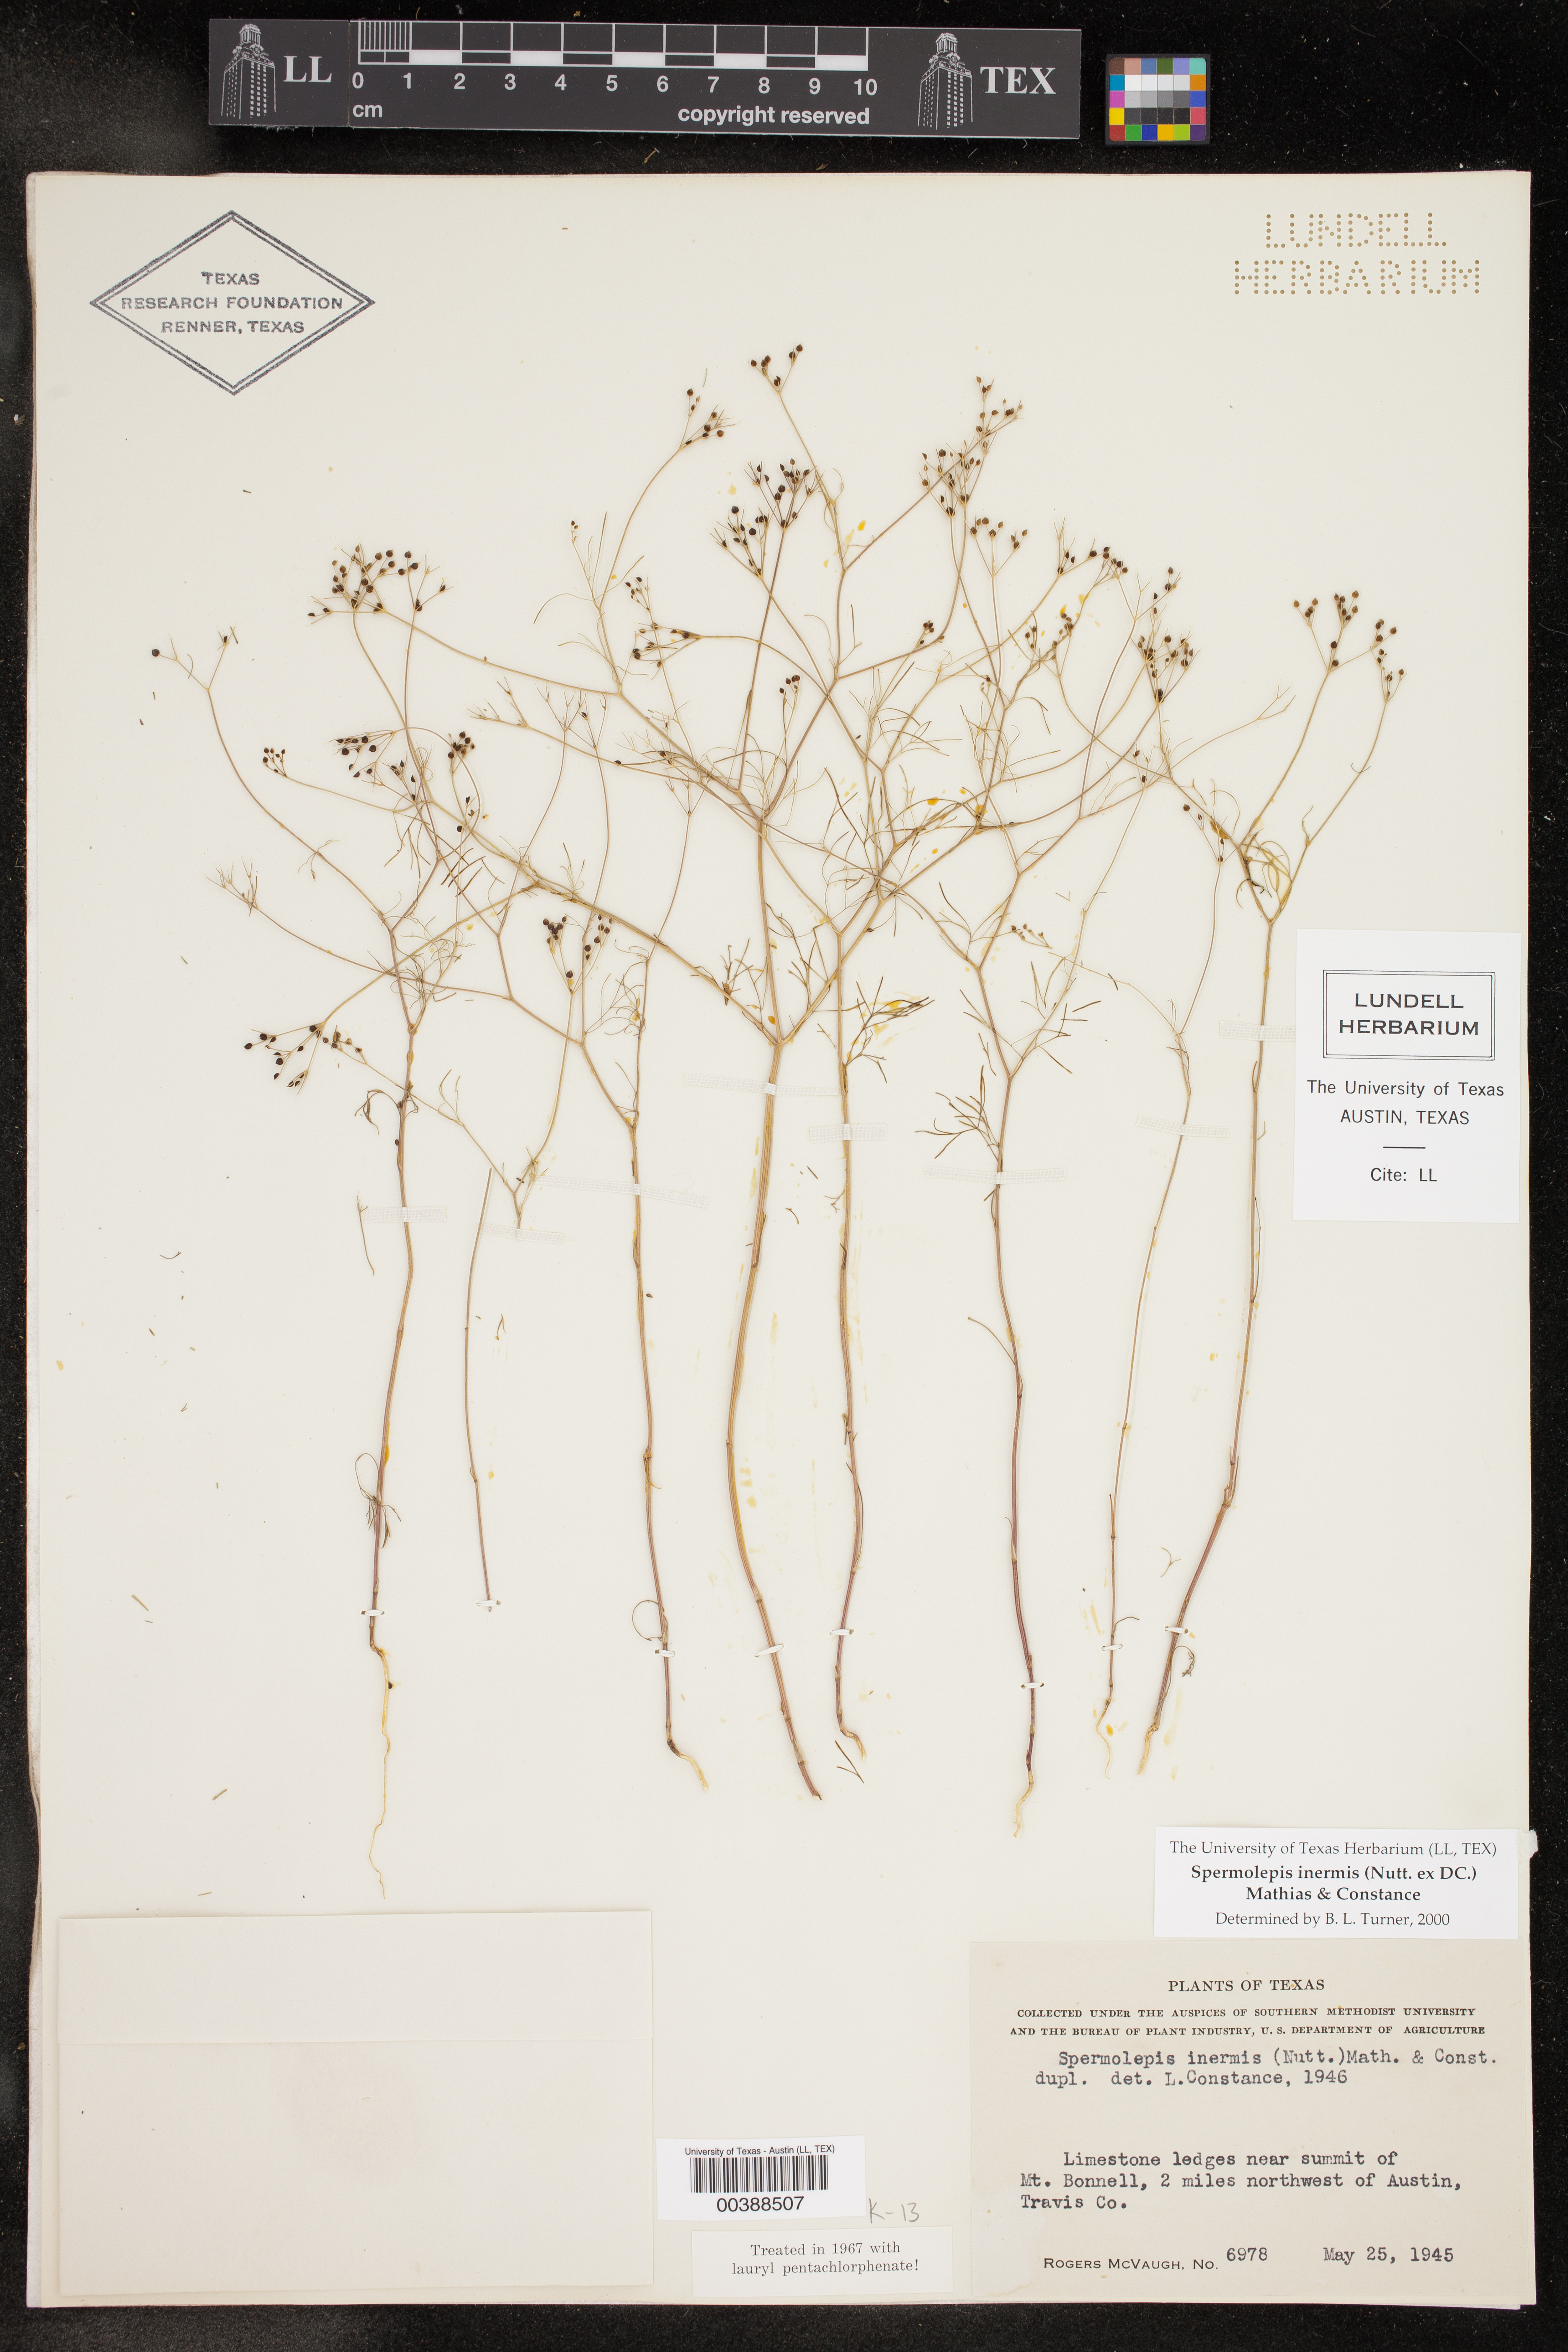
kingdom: Plantae
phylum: Tracheophyta
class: Magnoliopsida
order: Apiales
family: Apiaceae
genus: Spermolepis
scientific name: Spermolepis inermis
